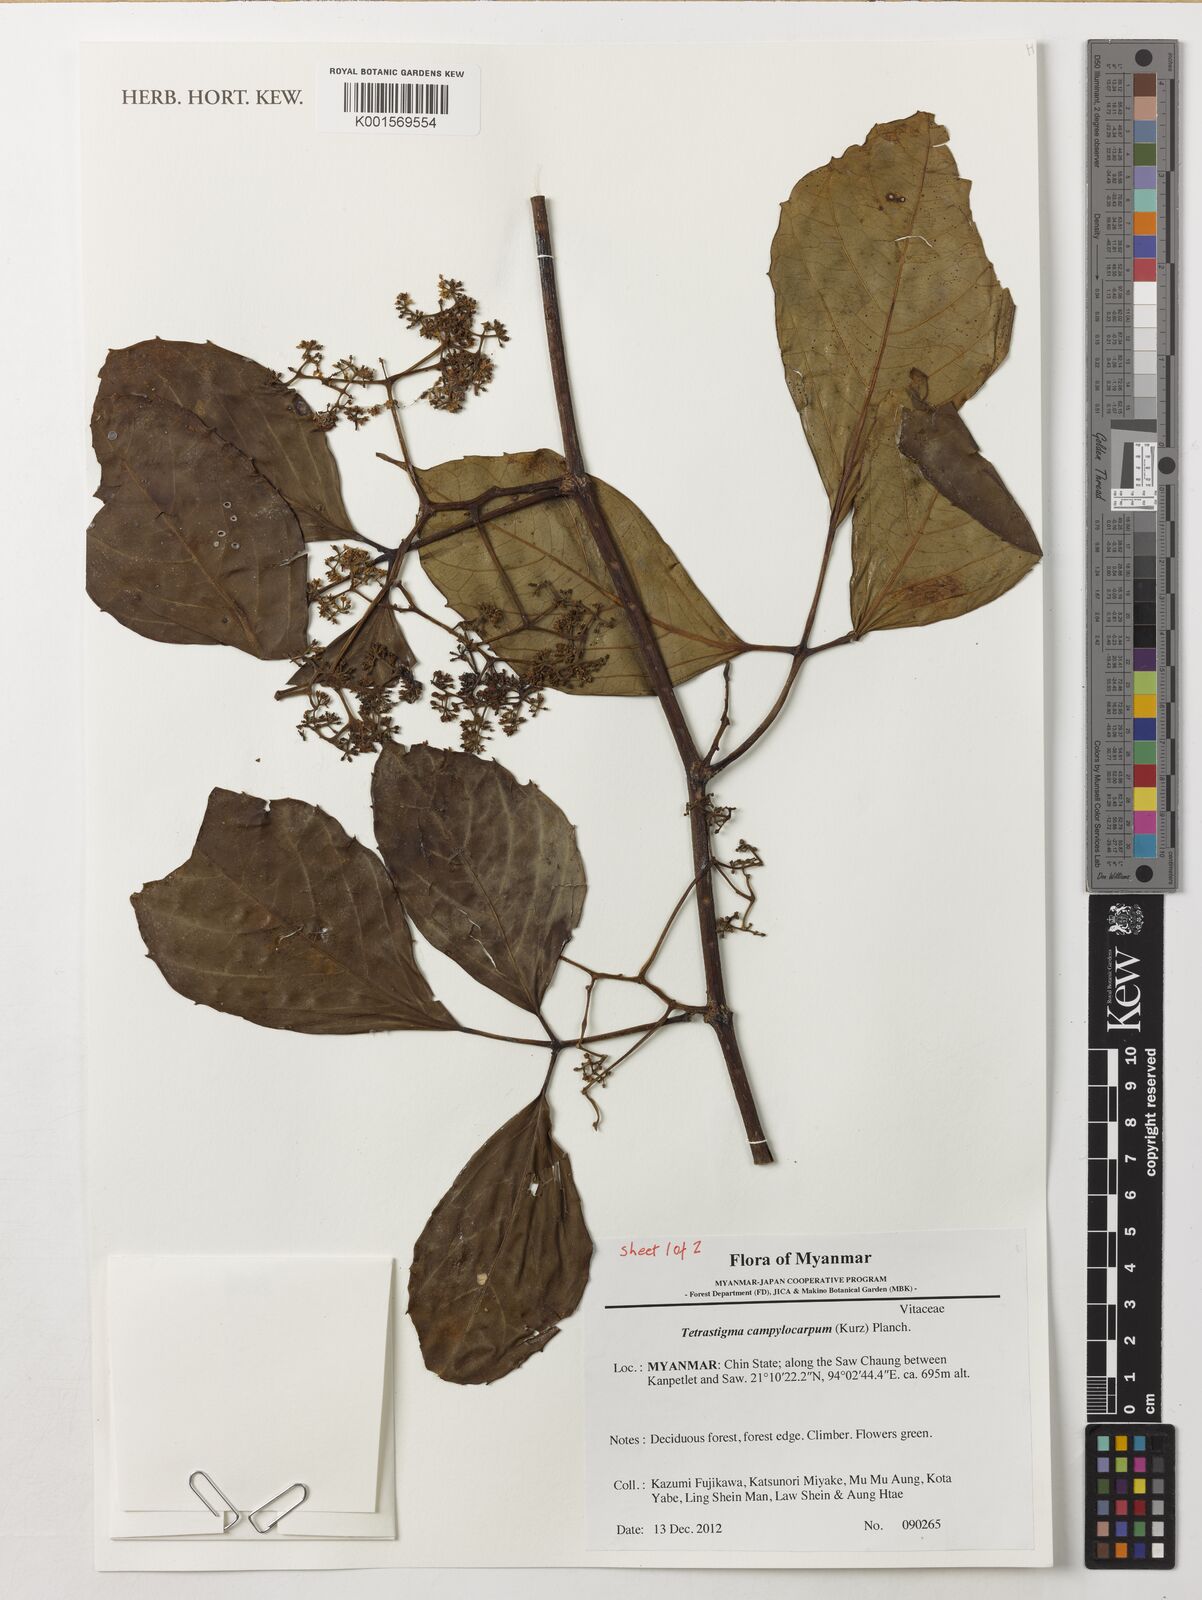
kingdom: Plantae
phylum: Tracheophyta
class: Magnoliopsida
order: Vitales
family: Vitaceae
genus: Tetrastigma
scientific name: Tetrastigma campylocarpum
